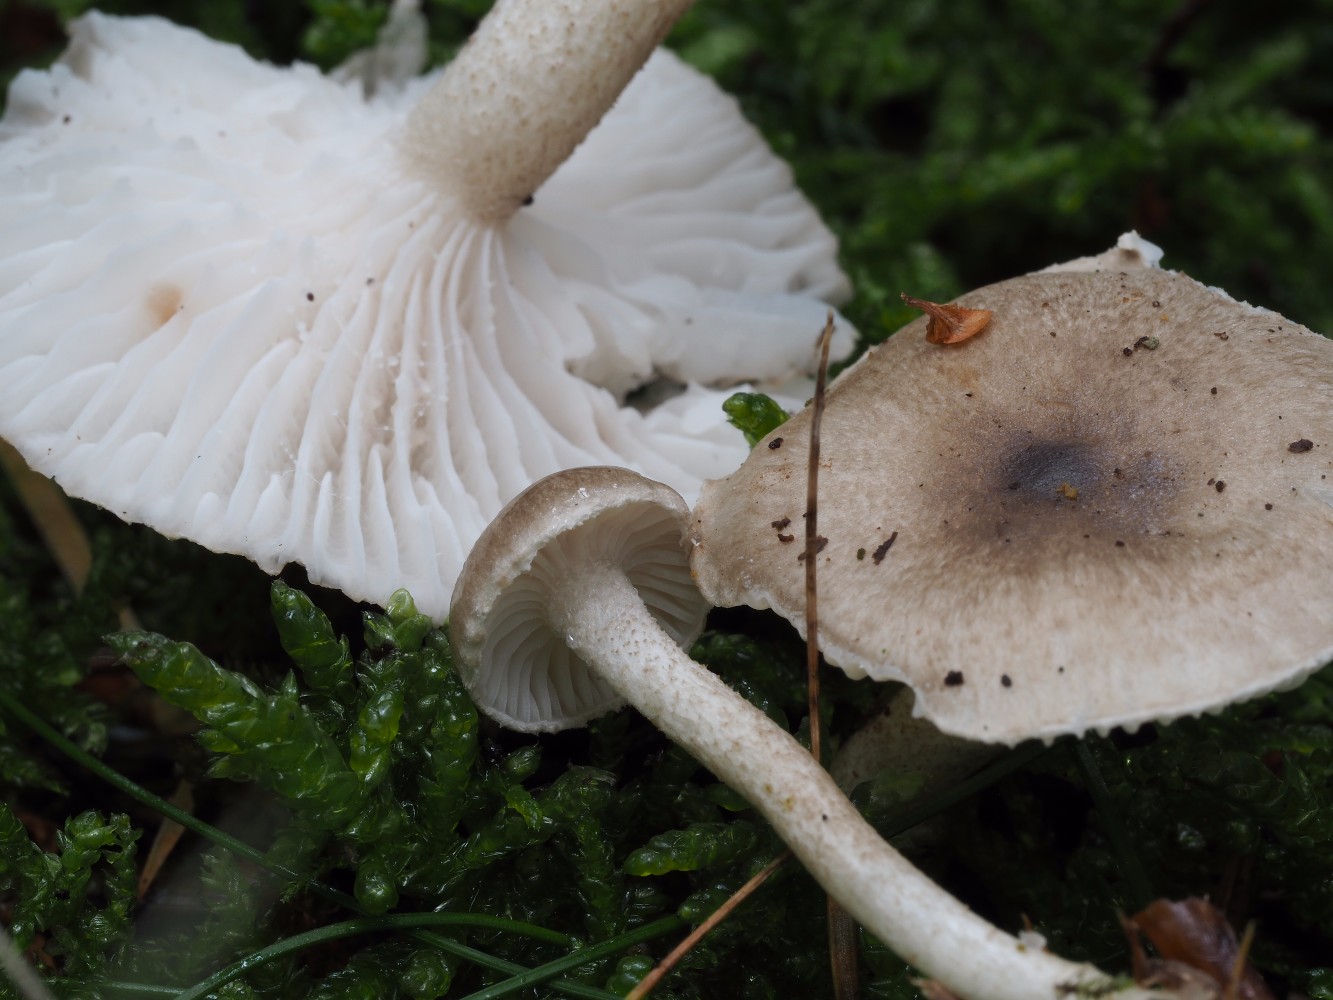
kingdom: Fungi
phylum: Basidiomycota
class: Agaricomycetes
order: Agaricales
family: Hygrophoraceae
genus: Hygrophorus
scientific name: Hygrophorus pustulatus
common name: mørkprikket sneglehat
